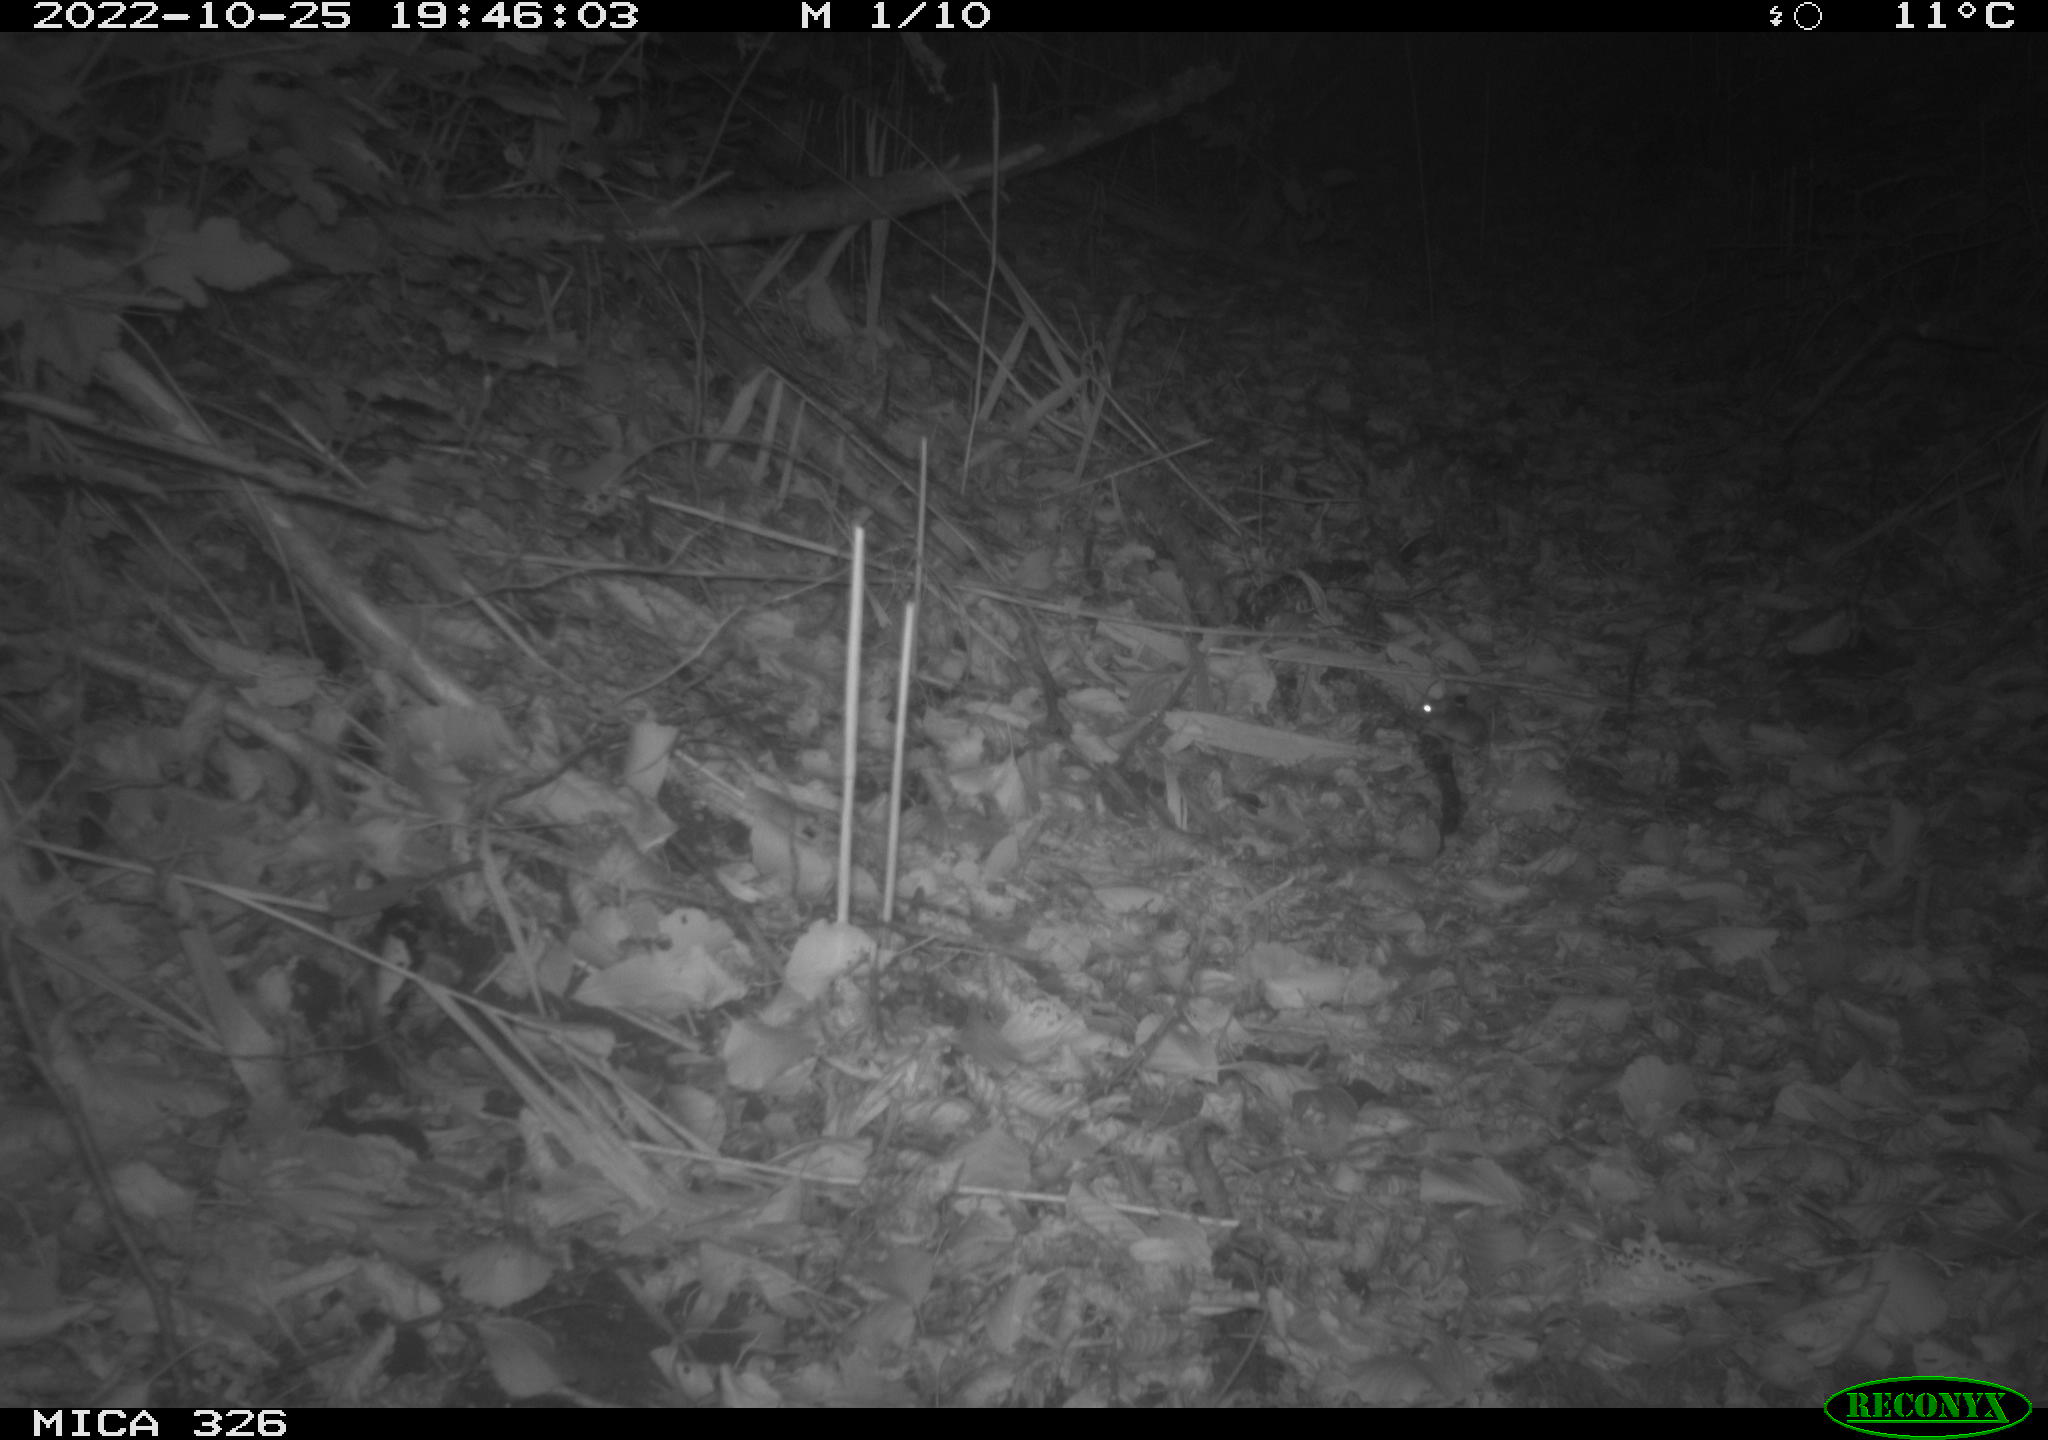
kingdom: Animalia
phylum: Chordata
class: Mammalia
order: Rodentia
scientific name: Rodentia
